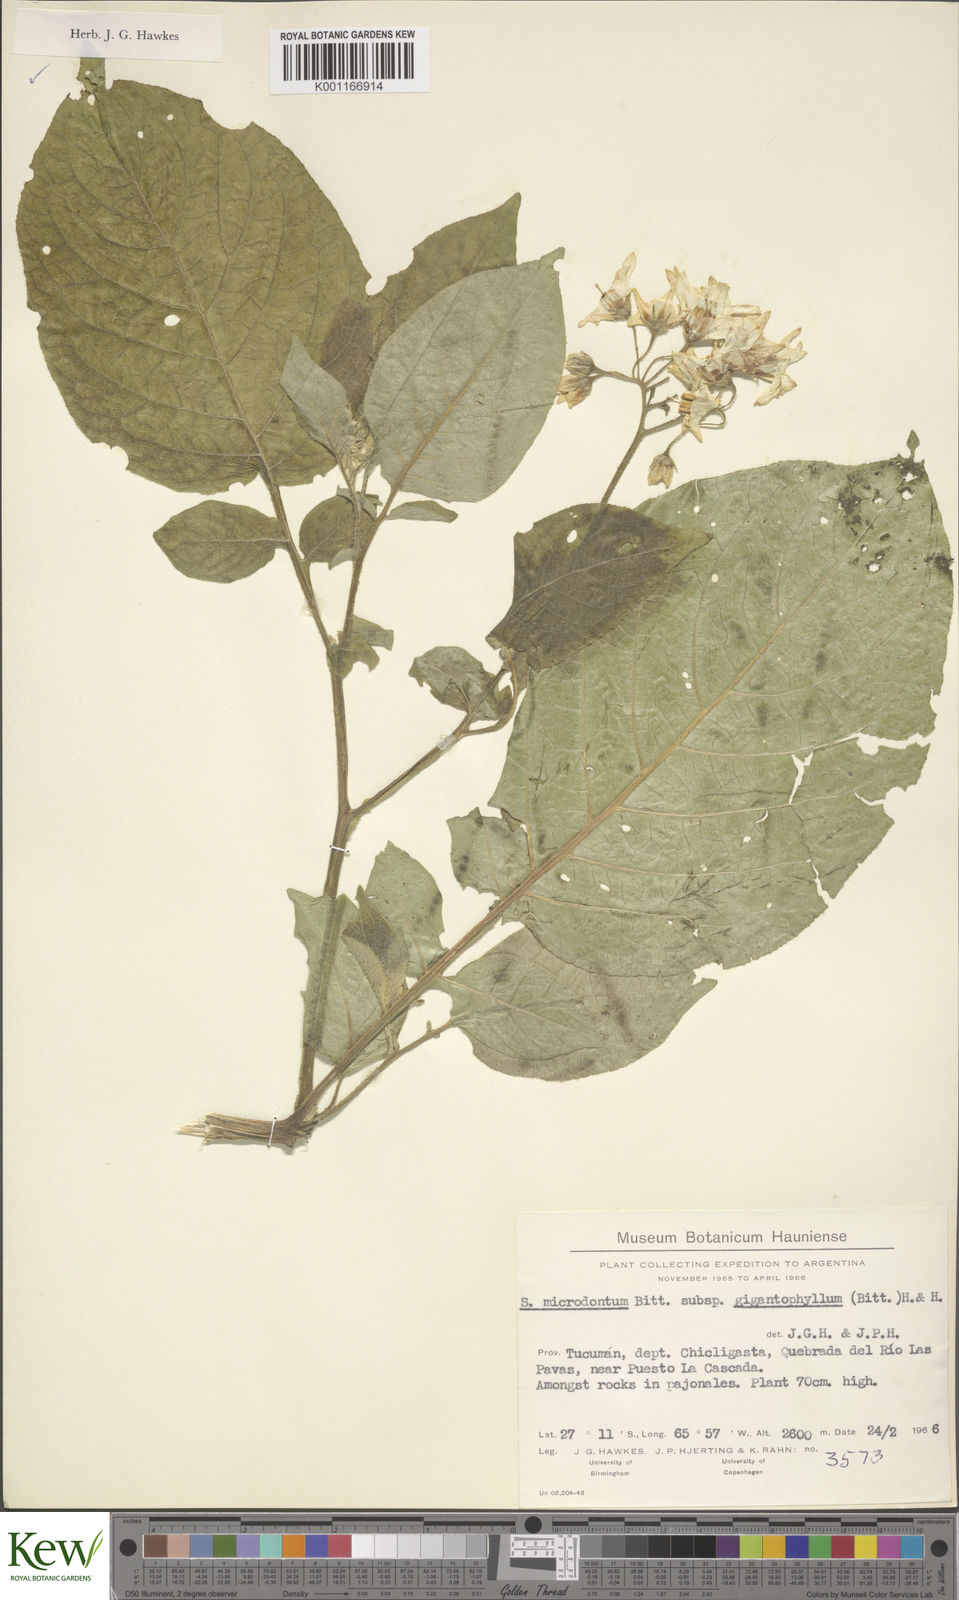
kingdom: Plantae
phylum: Tracheophyta
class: Magnoliopsida
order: Solanales
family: Solanaceae
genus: Solanum
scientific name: Solanum microdontum
